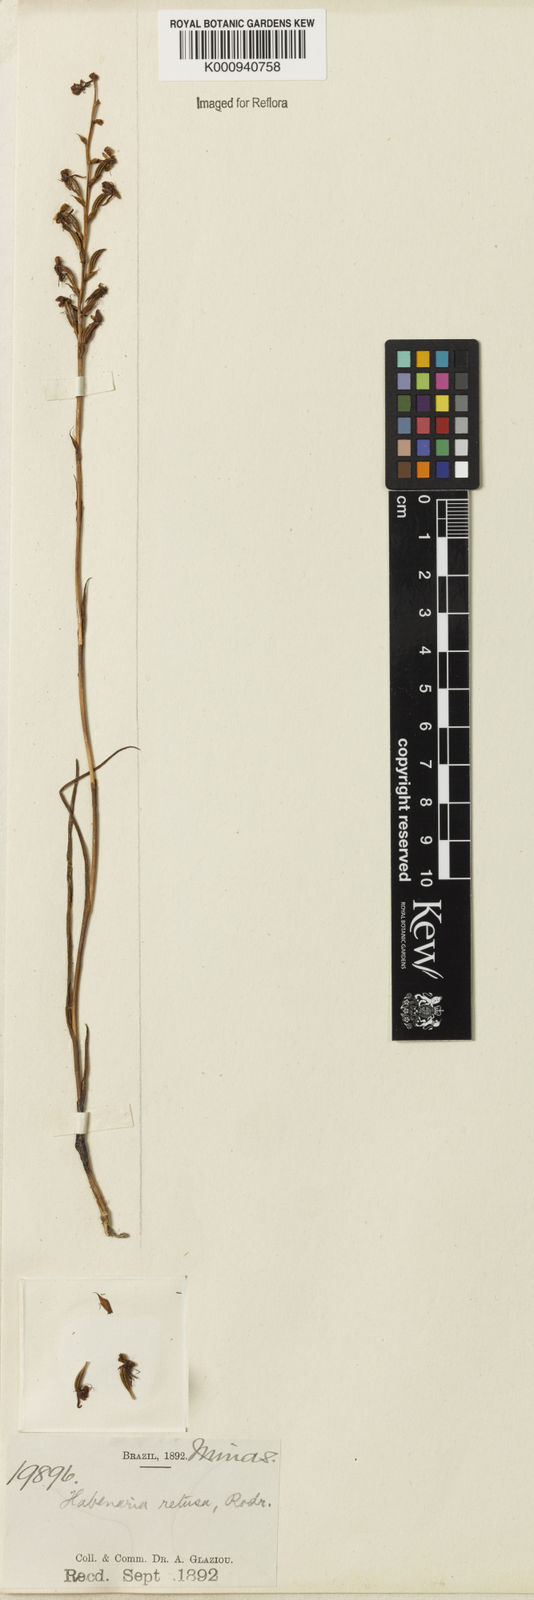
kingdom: Plantae
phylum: Tracheophyta
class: Liliopsida
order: Asparagales
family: Orchidaceae
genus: Habenaria
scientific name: Habenaria balansae
